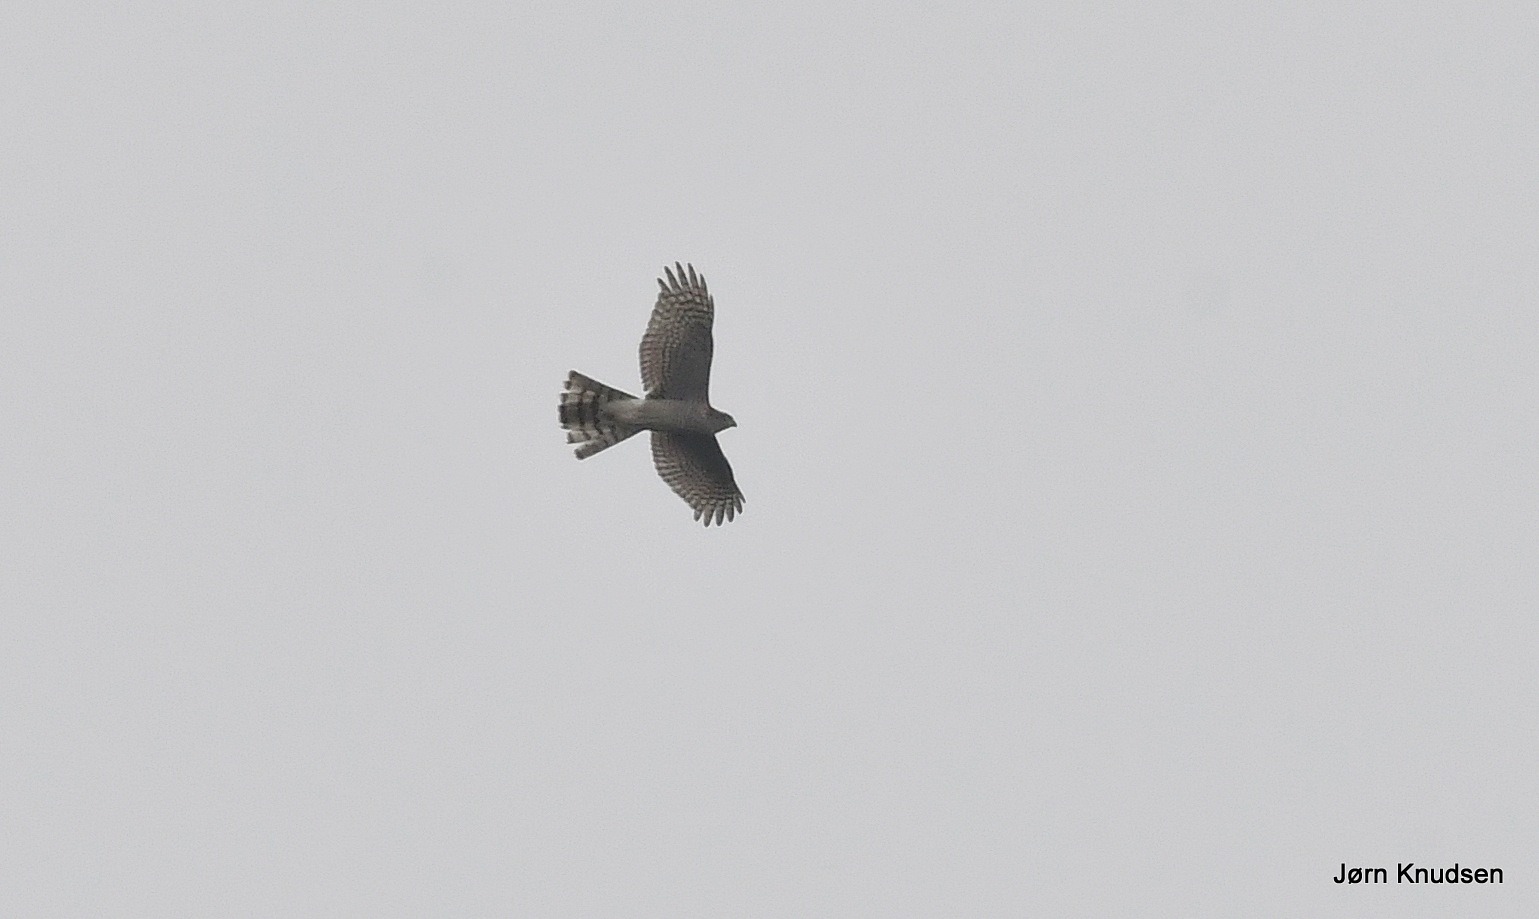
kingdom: Animalia
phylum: Chordata
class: Aves
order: Accipitriformes
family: Accipitridae
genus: Accipiter
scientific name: Accipiter nisus
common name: Spurvehøg
